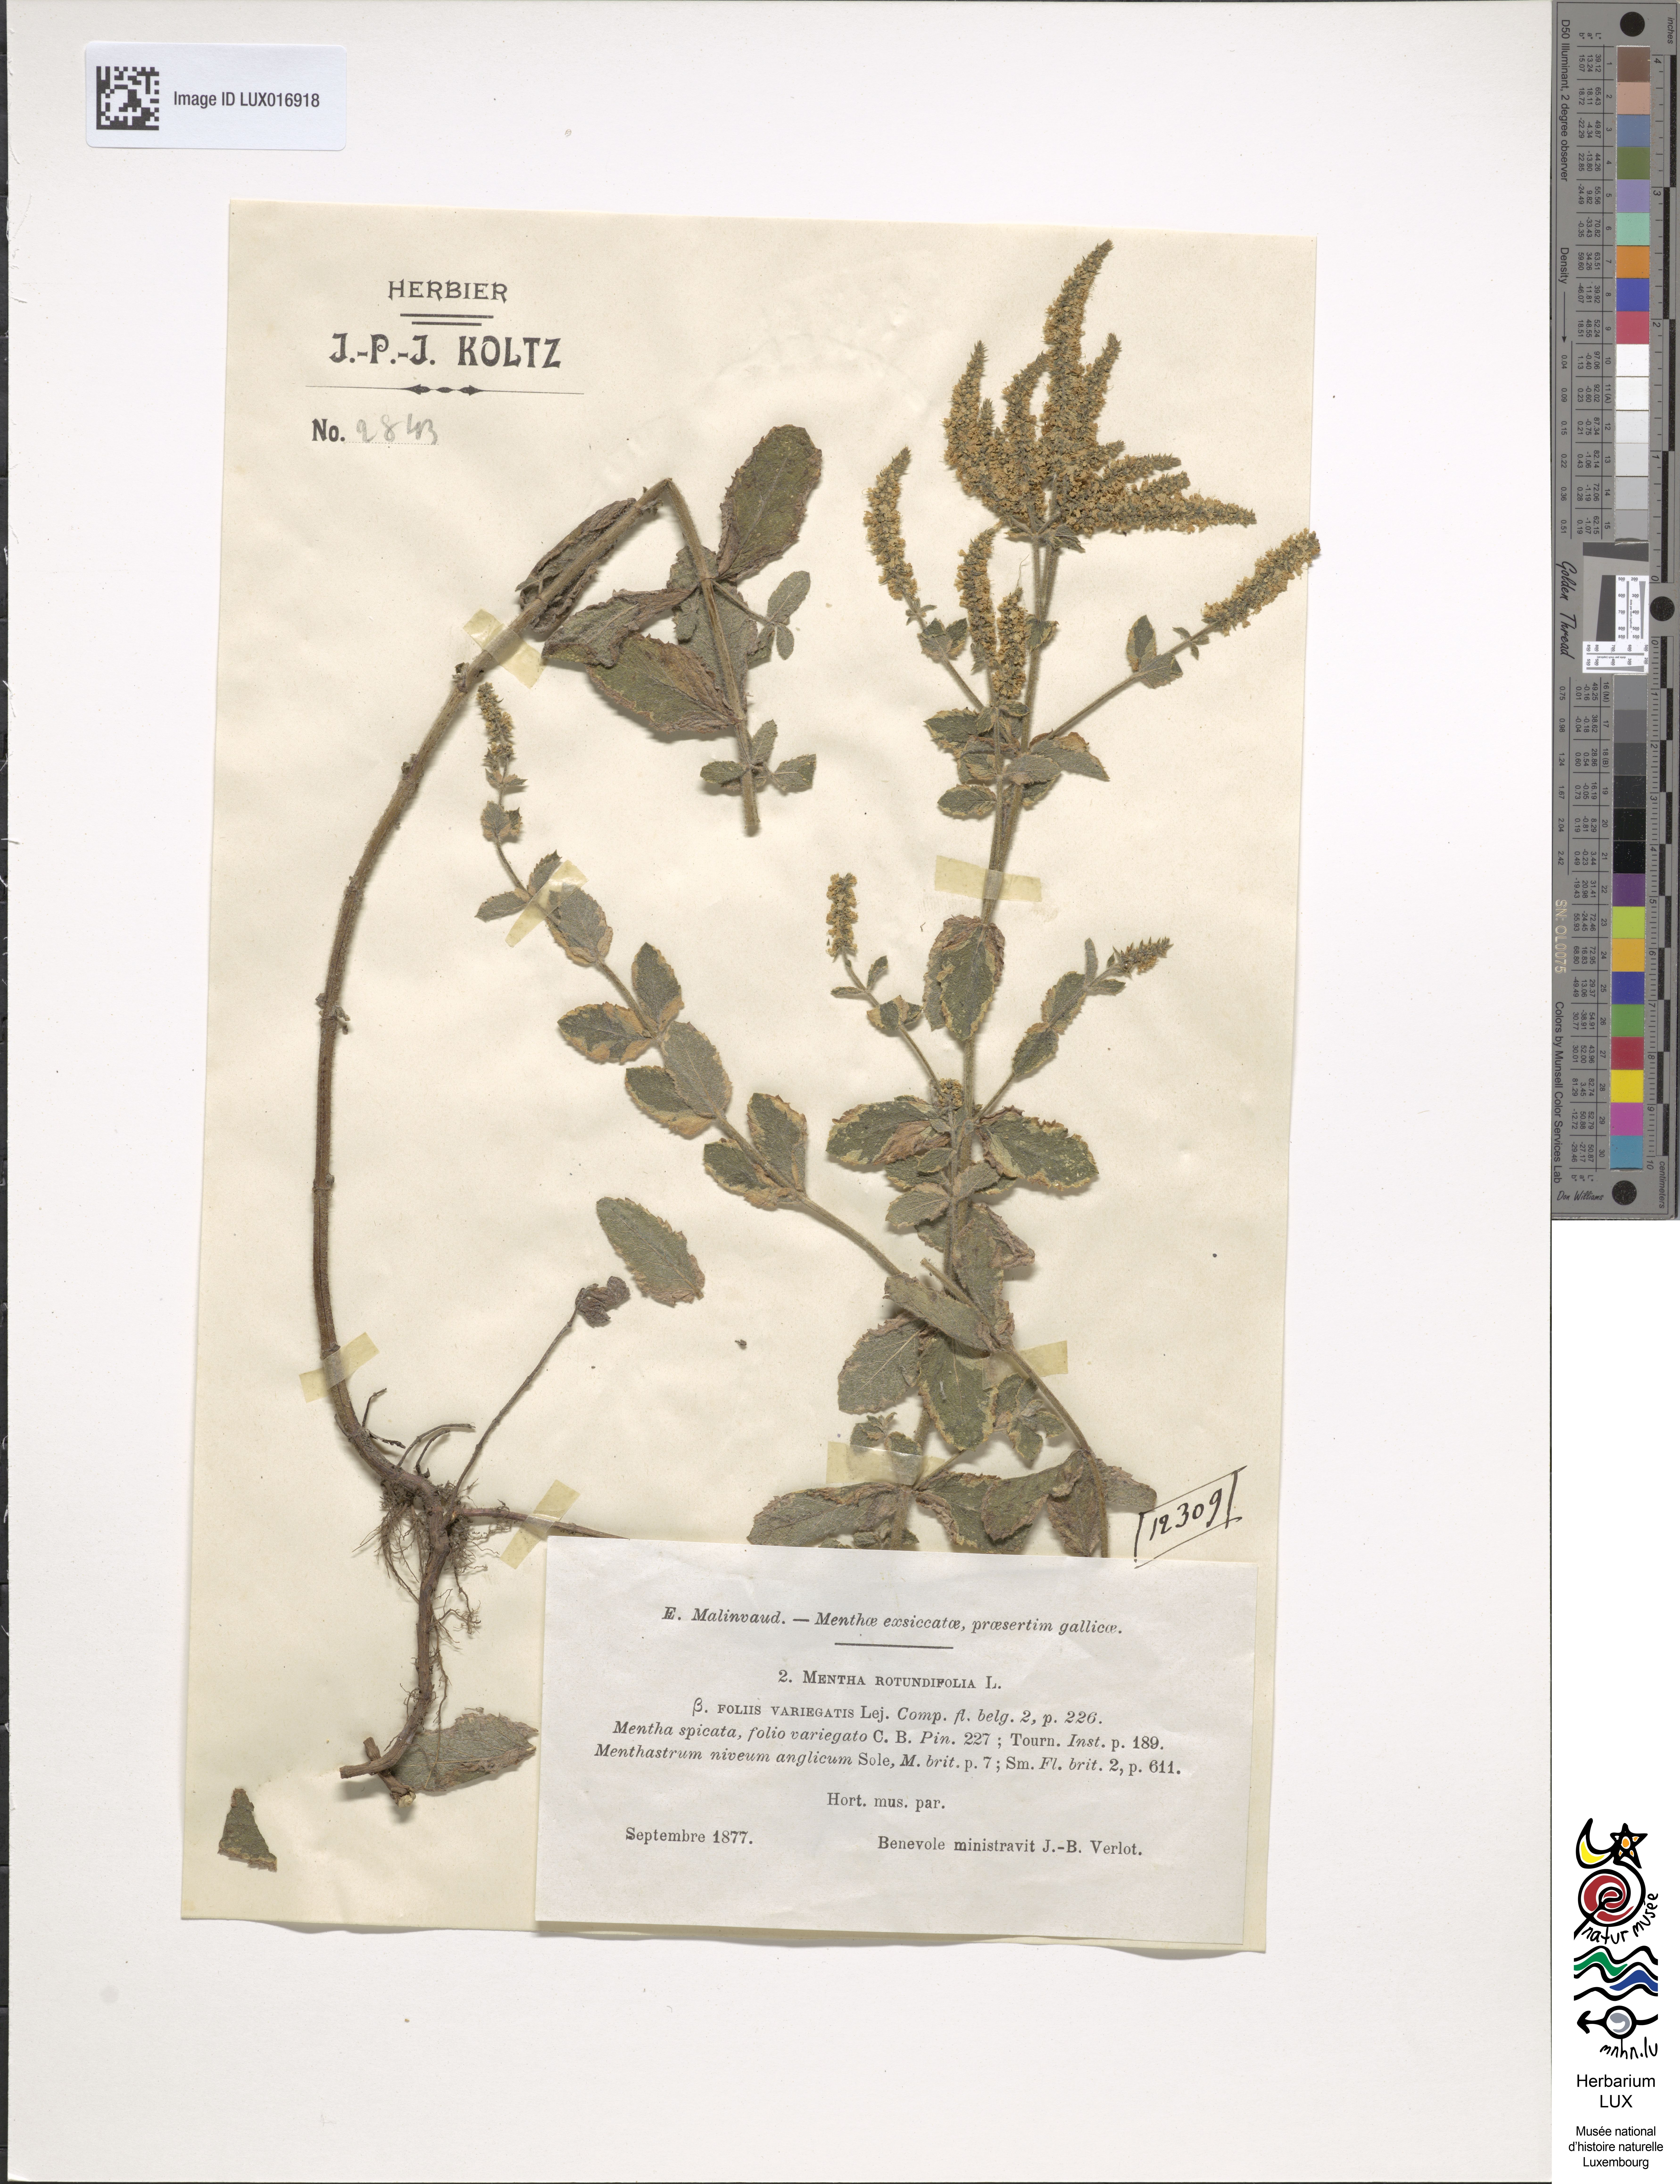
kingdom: Plantae
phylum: Tracheophyta
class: Magnoliopsida
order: Lamiales
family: Lamiaceae
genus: Mentha
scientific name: Mentha rotundifolia
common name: Bigleaf mint
